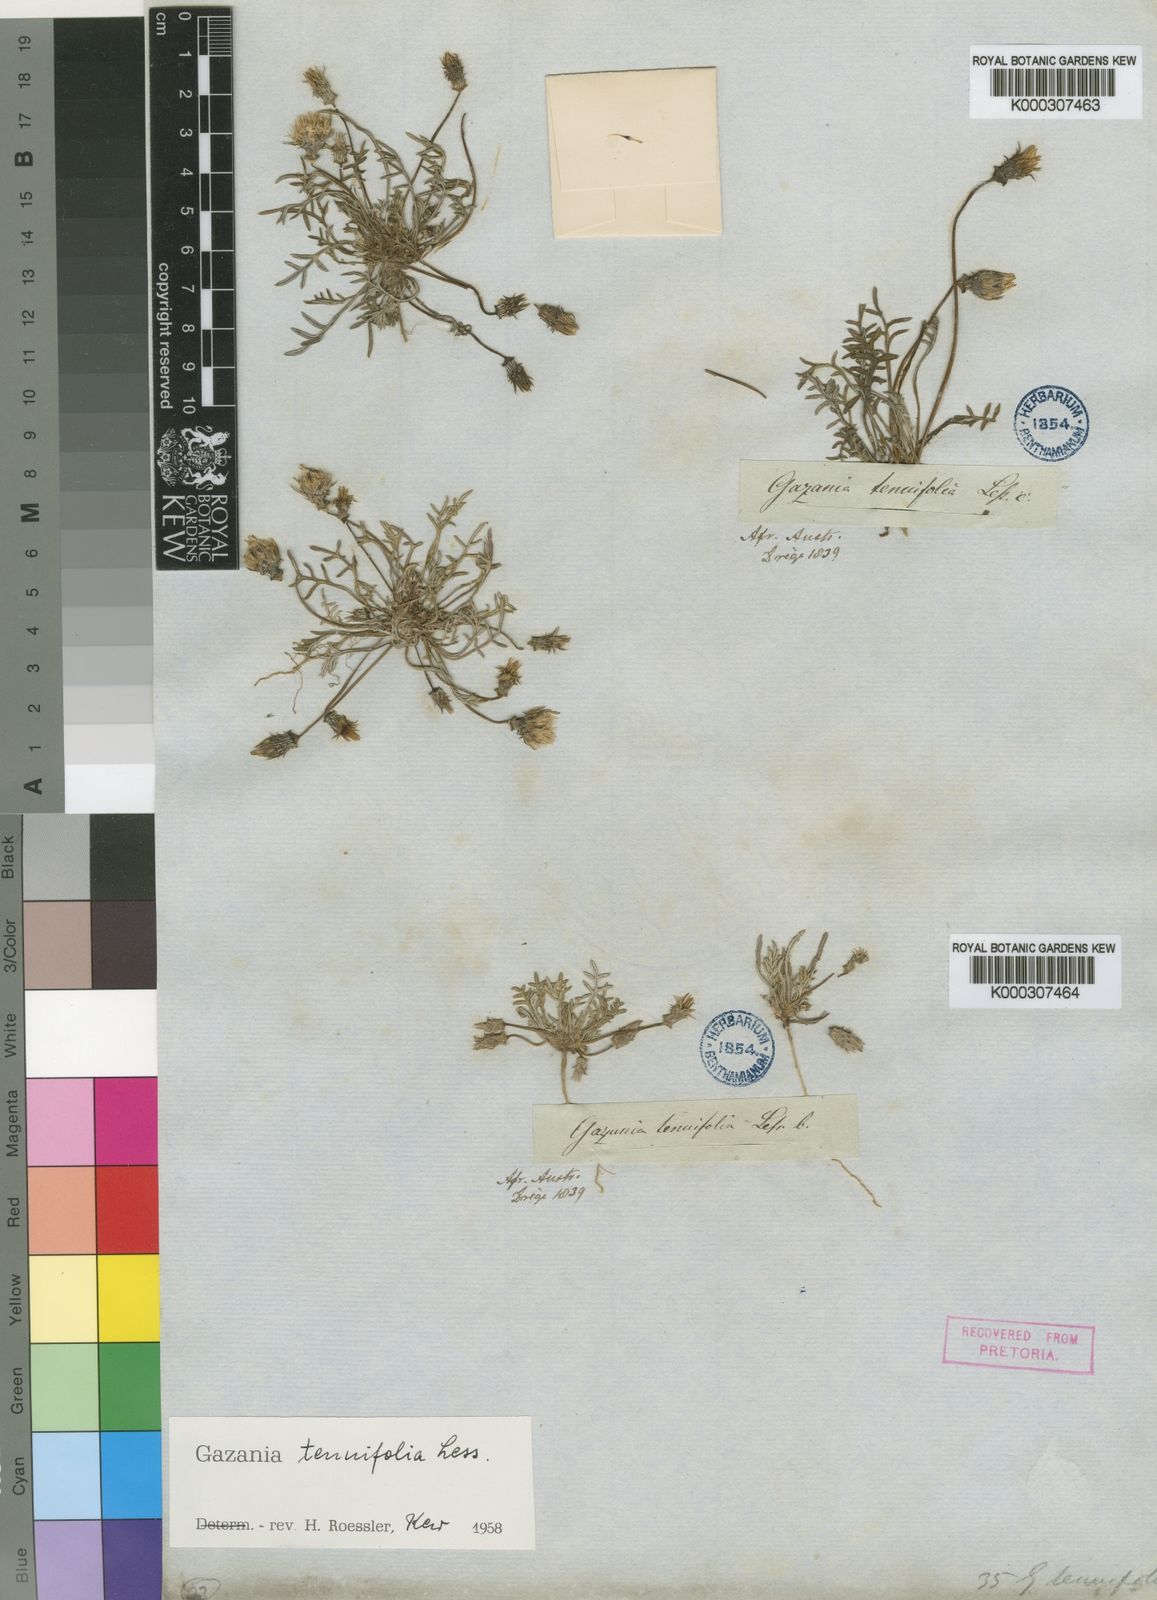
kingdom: Plantae
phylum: Tracheophyta
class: Magnoliopsida
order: Asterales
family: Asteraceae
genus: Gazania
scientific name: Gazania tenuifolia
